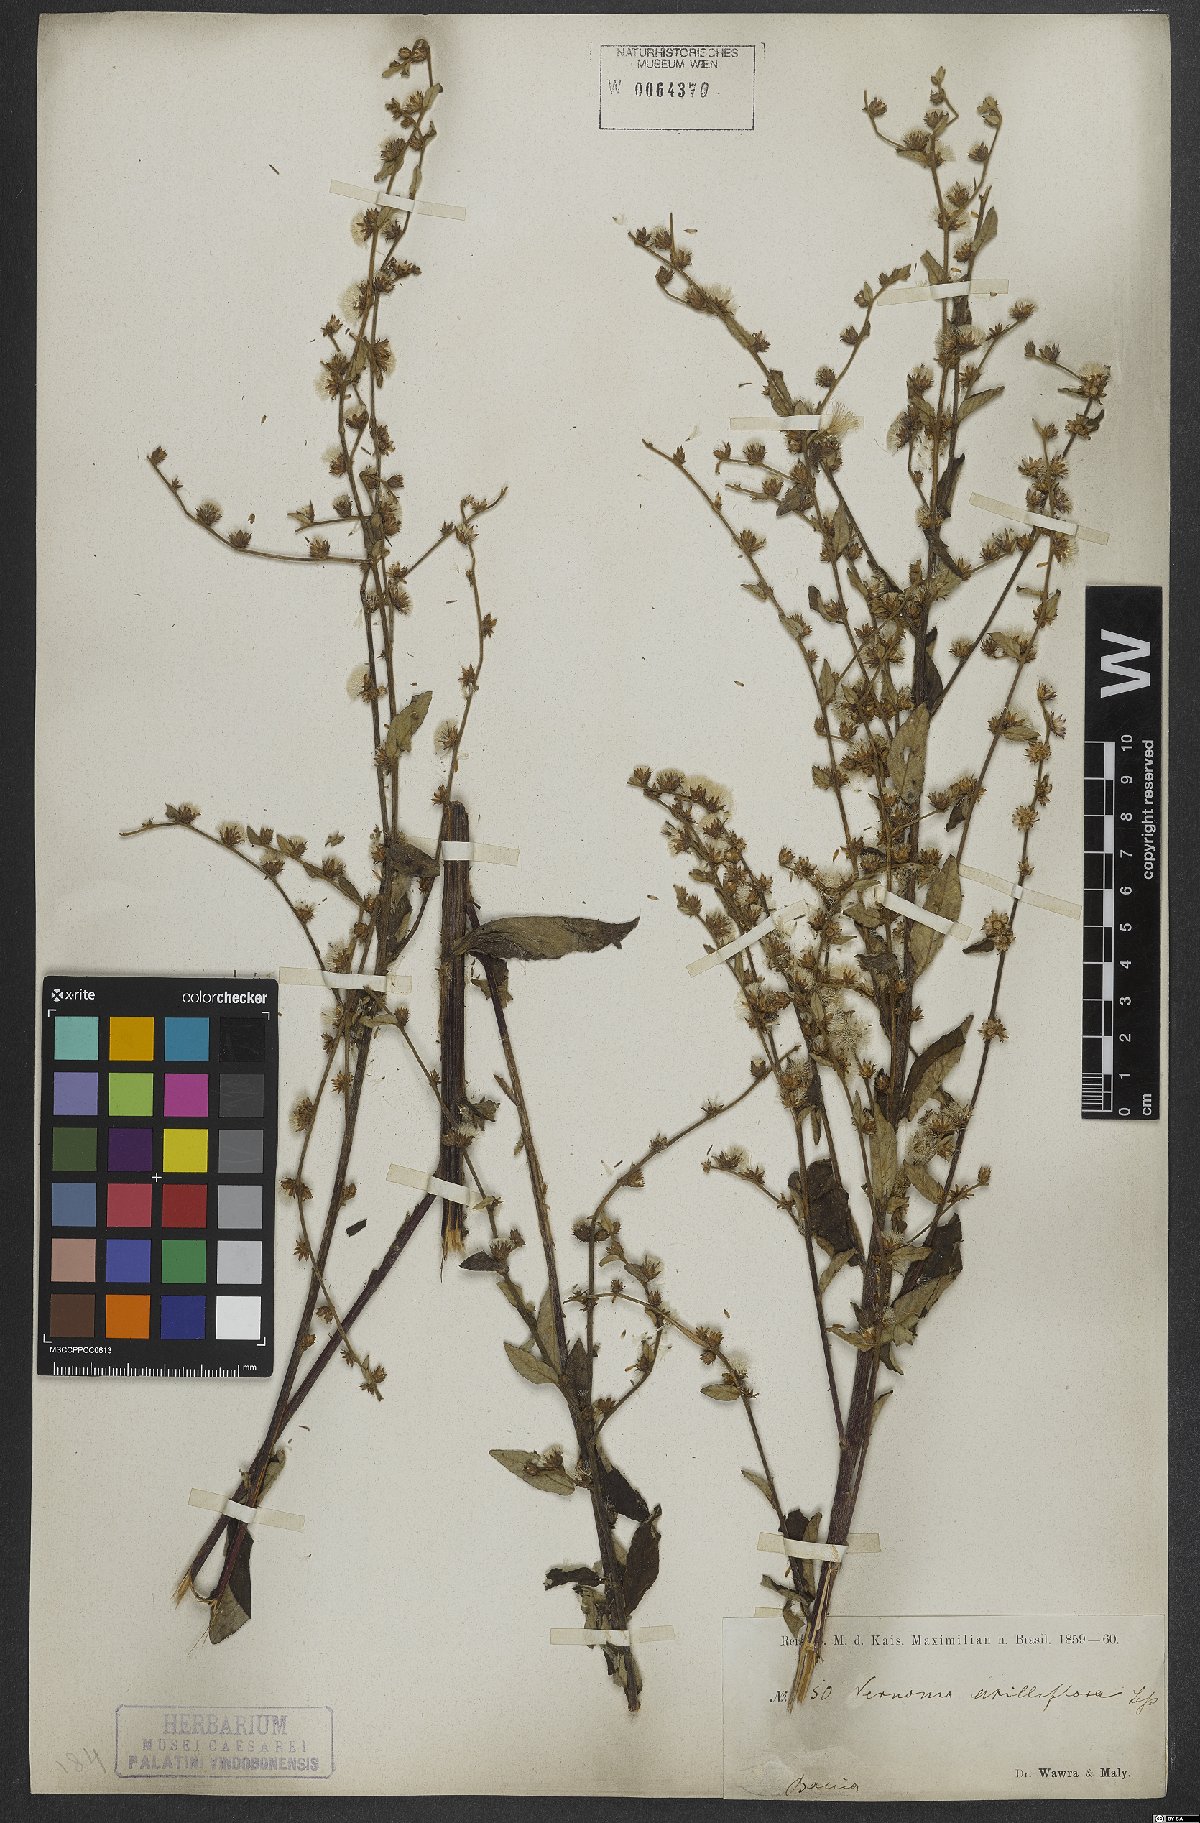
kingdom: Plantae
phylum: Tracheophyta
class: Magnoliopsida
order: Asterales
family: Asteraceae
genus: Lepidaploa
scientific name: Lepidaploa cotoneaster
